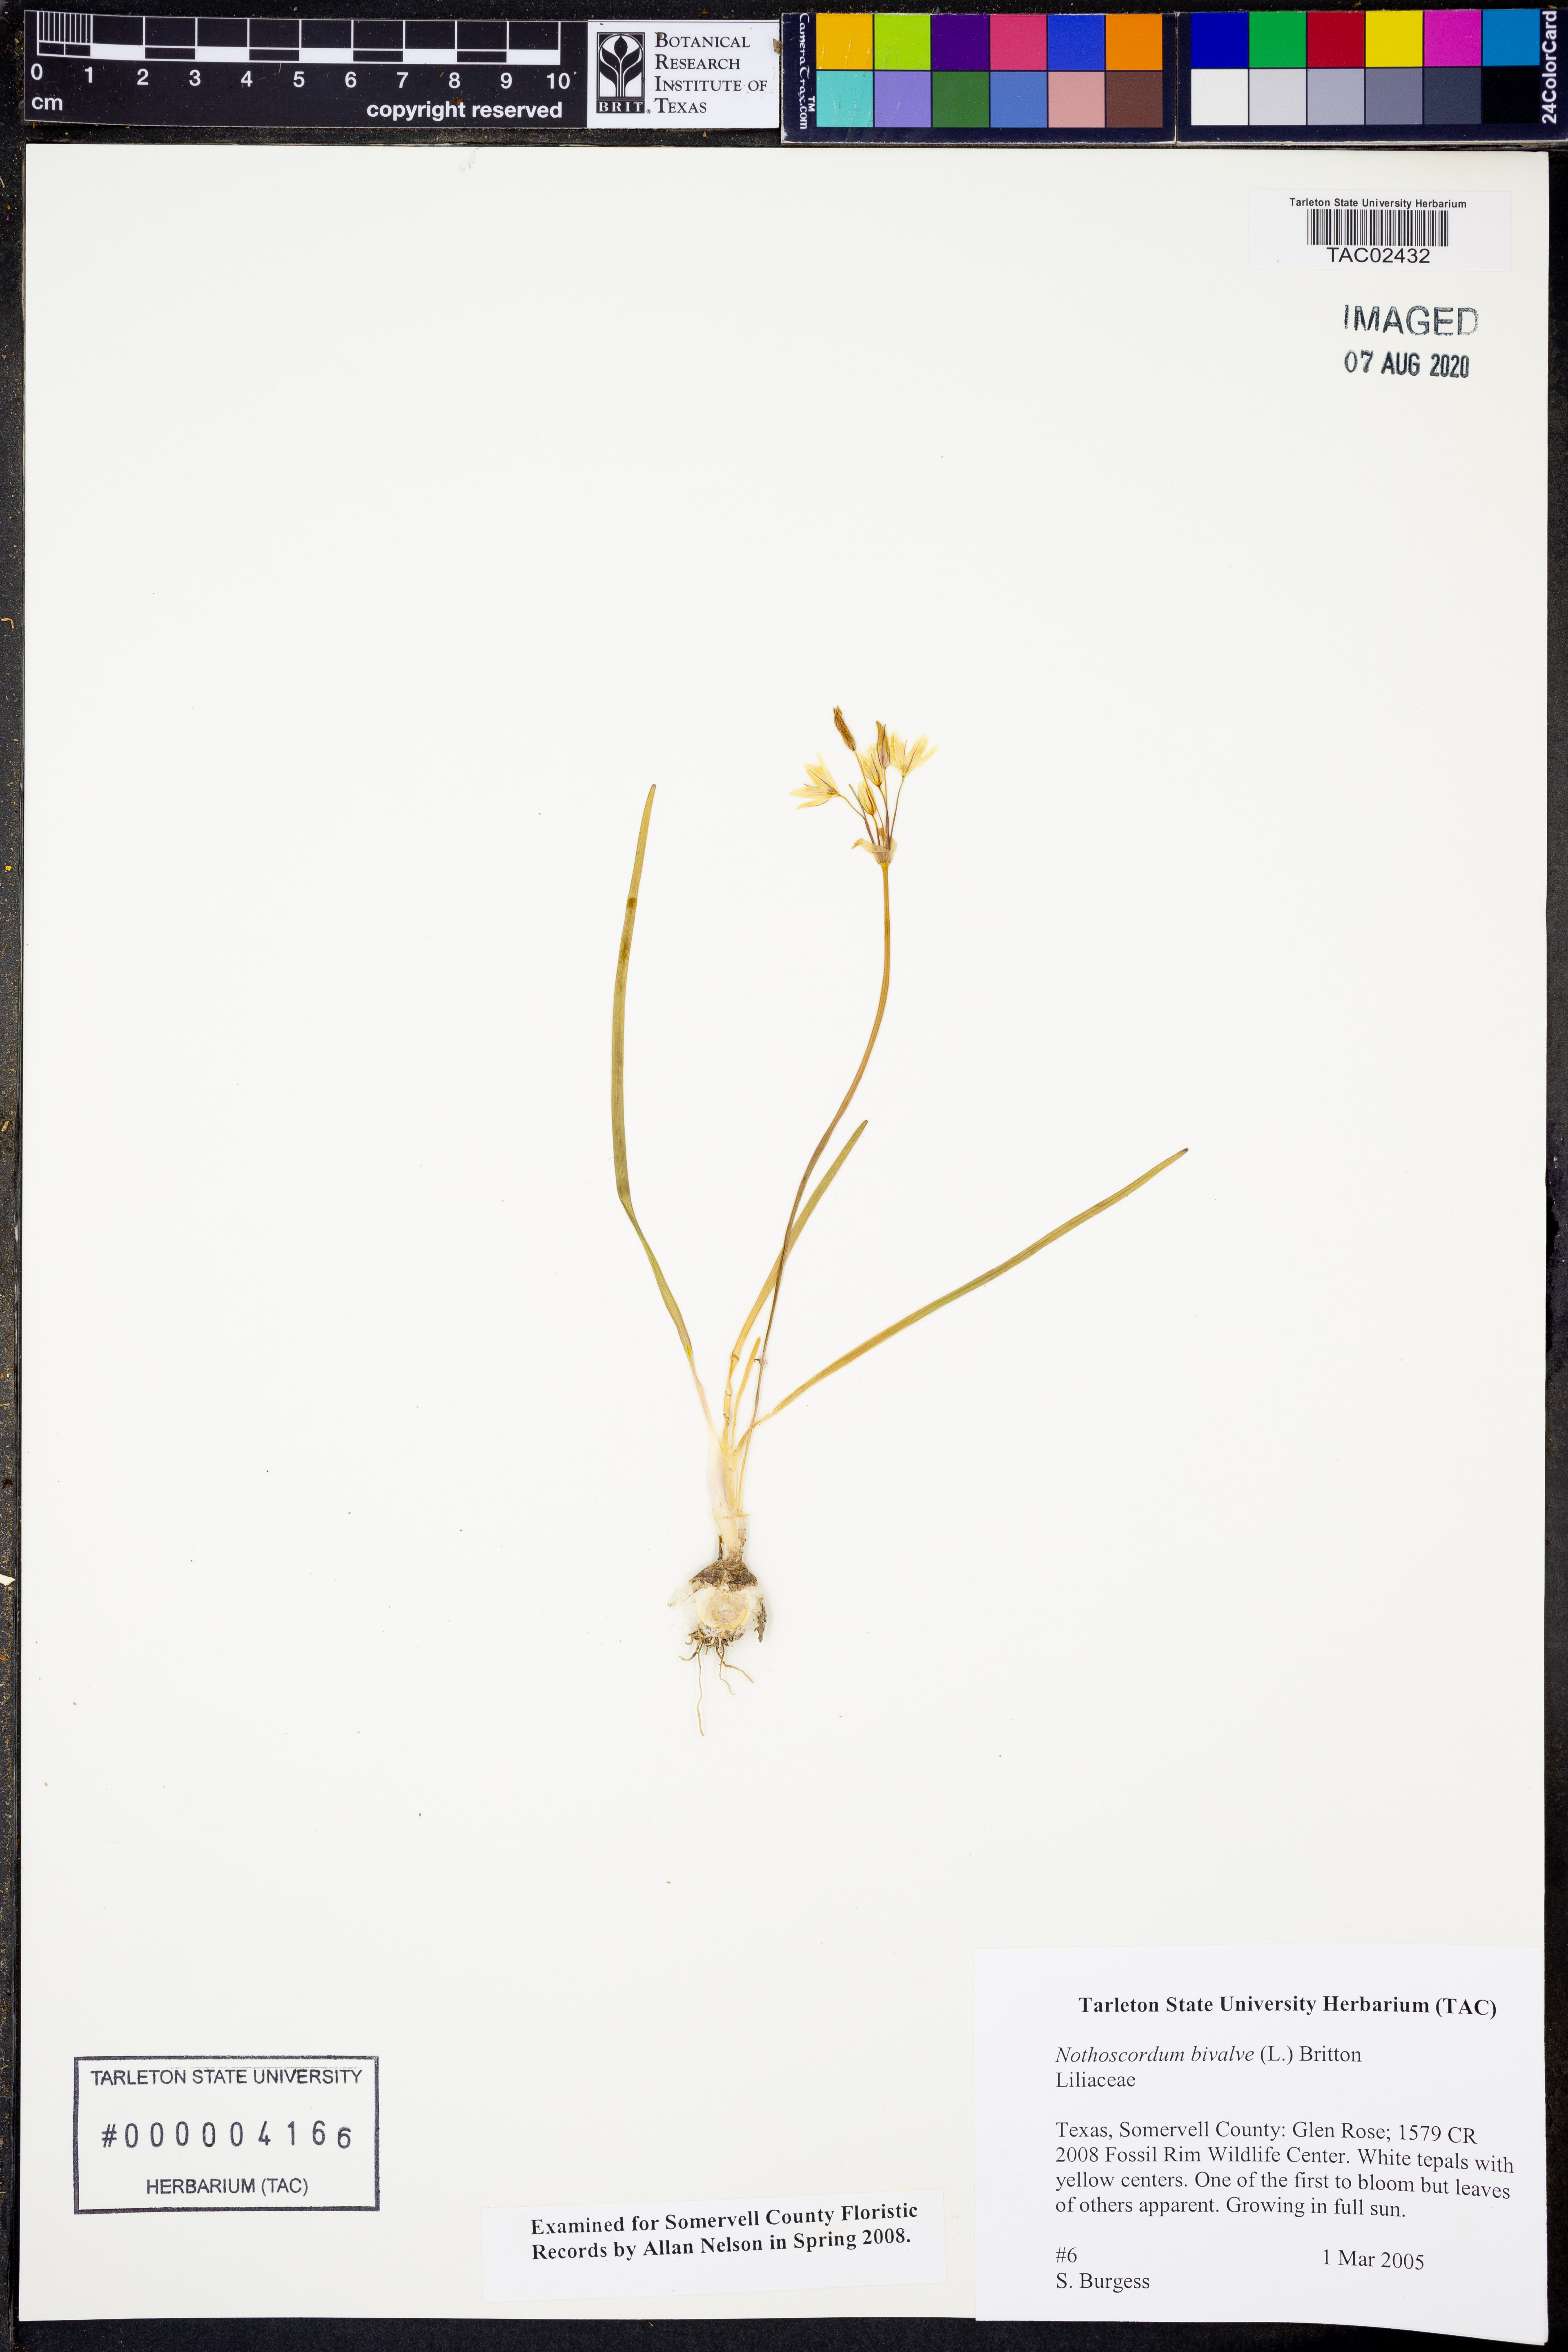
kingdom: Plantae
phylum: Tracheophyta
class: Liliopsida
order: Asparagales
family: Amaryllidaceae
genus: Nothoscordum
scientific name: Nothoscordum bivalve
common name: Crow-poison
